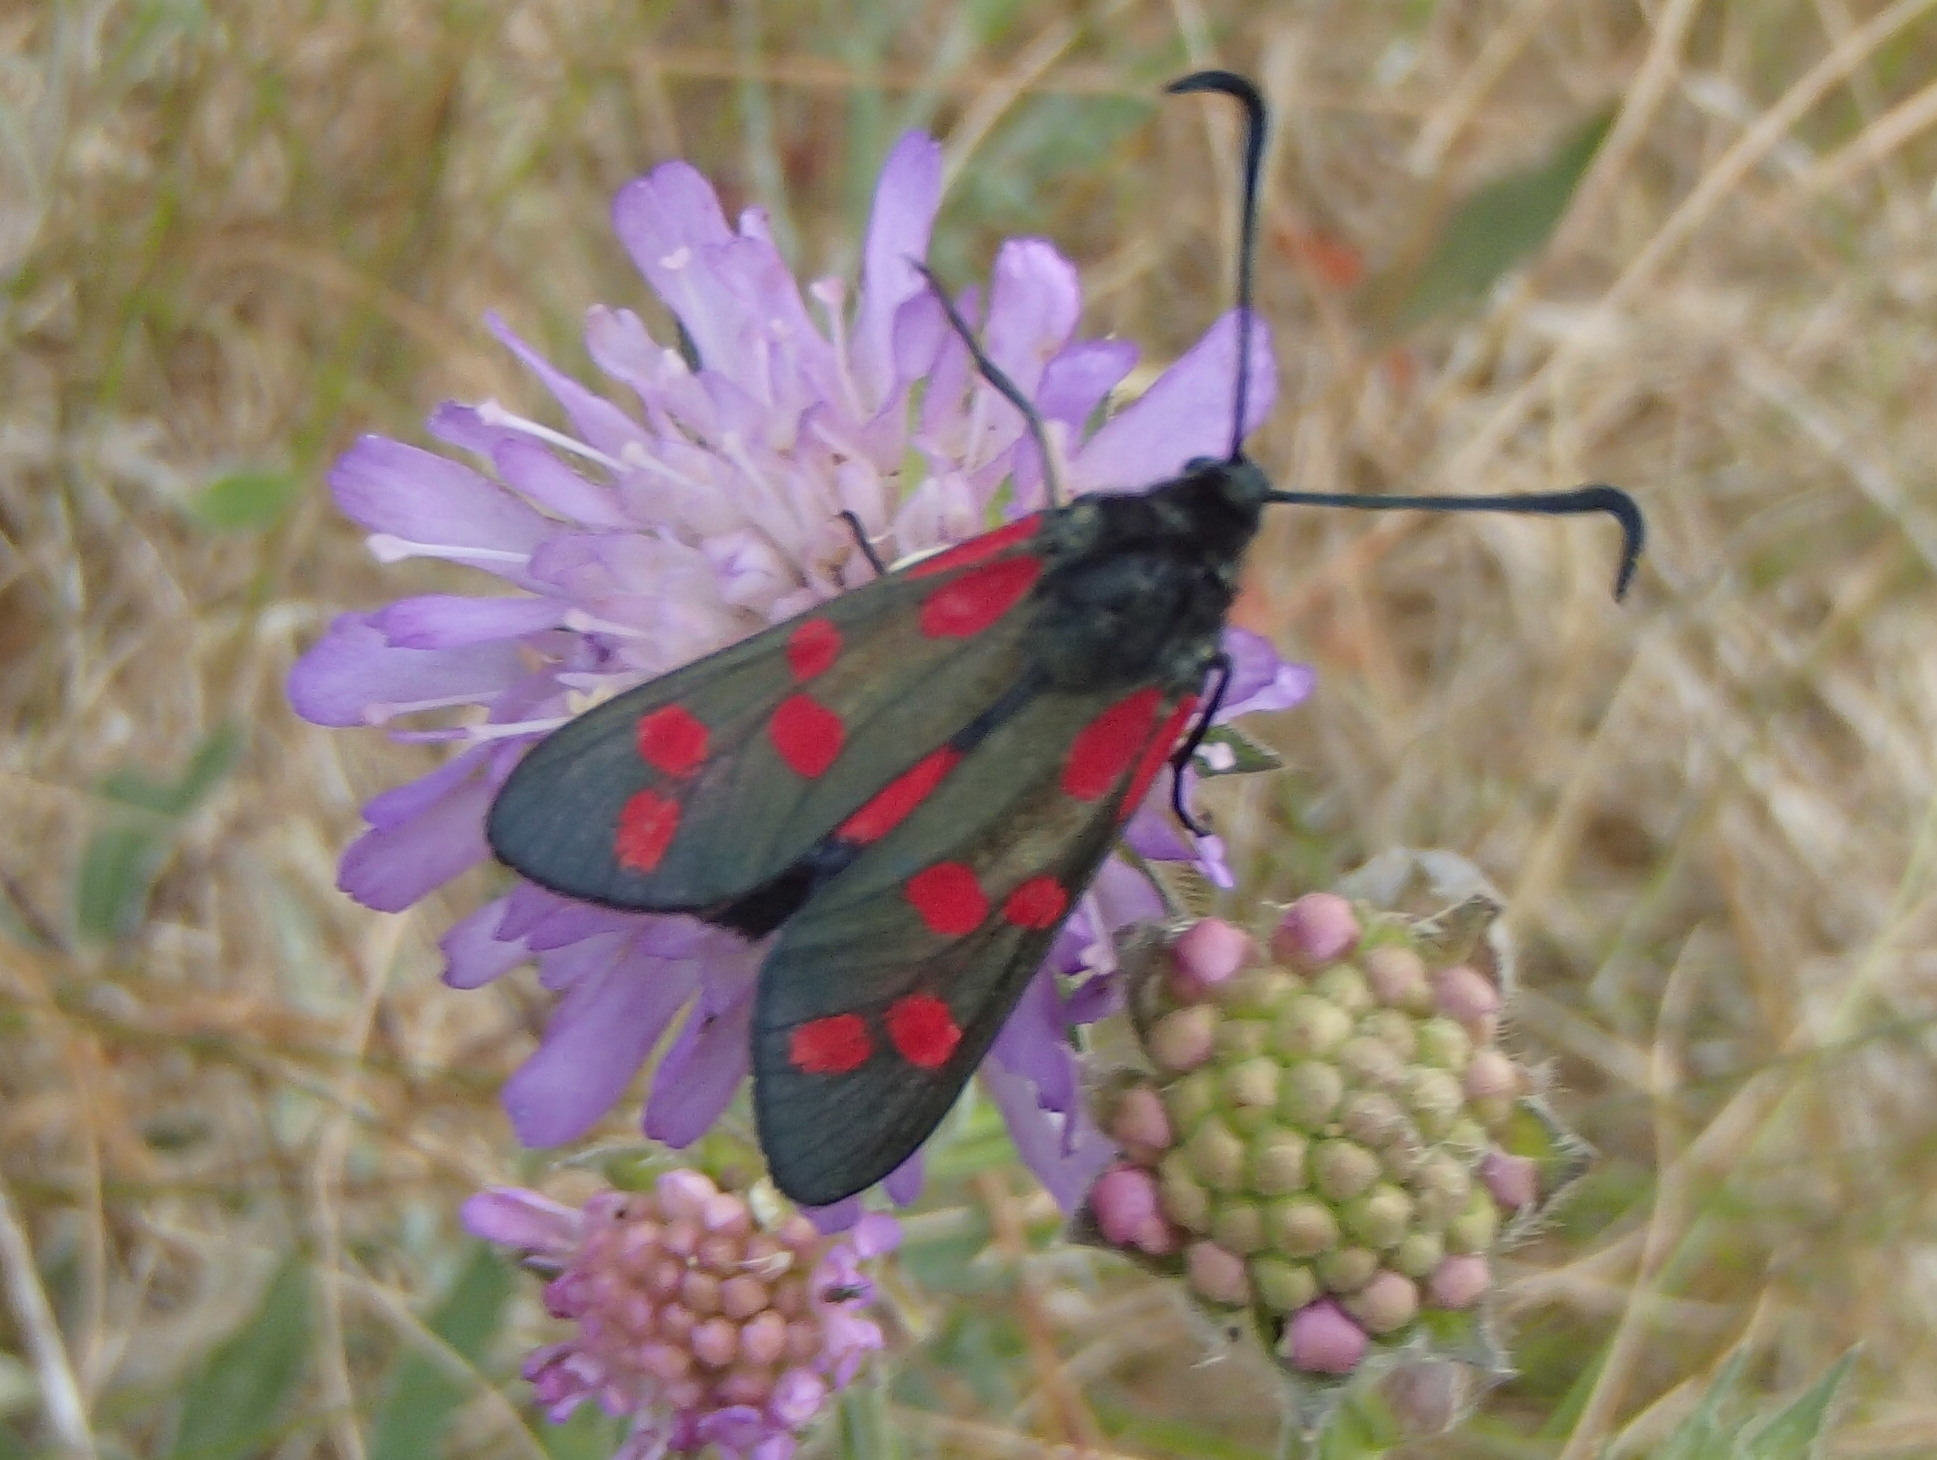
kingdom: Animalia
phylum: Arthropoda
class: Insecta
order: Lepidoptera
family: Zygaenidae
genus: Zygaena
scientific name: Zygaena filipendulae
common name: Seksplettet køllesværmer
